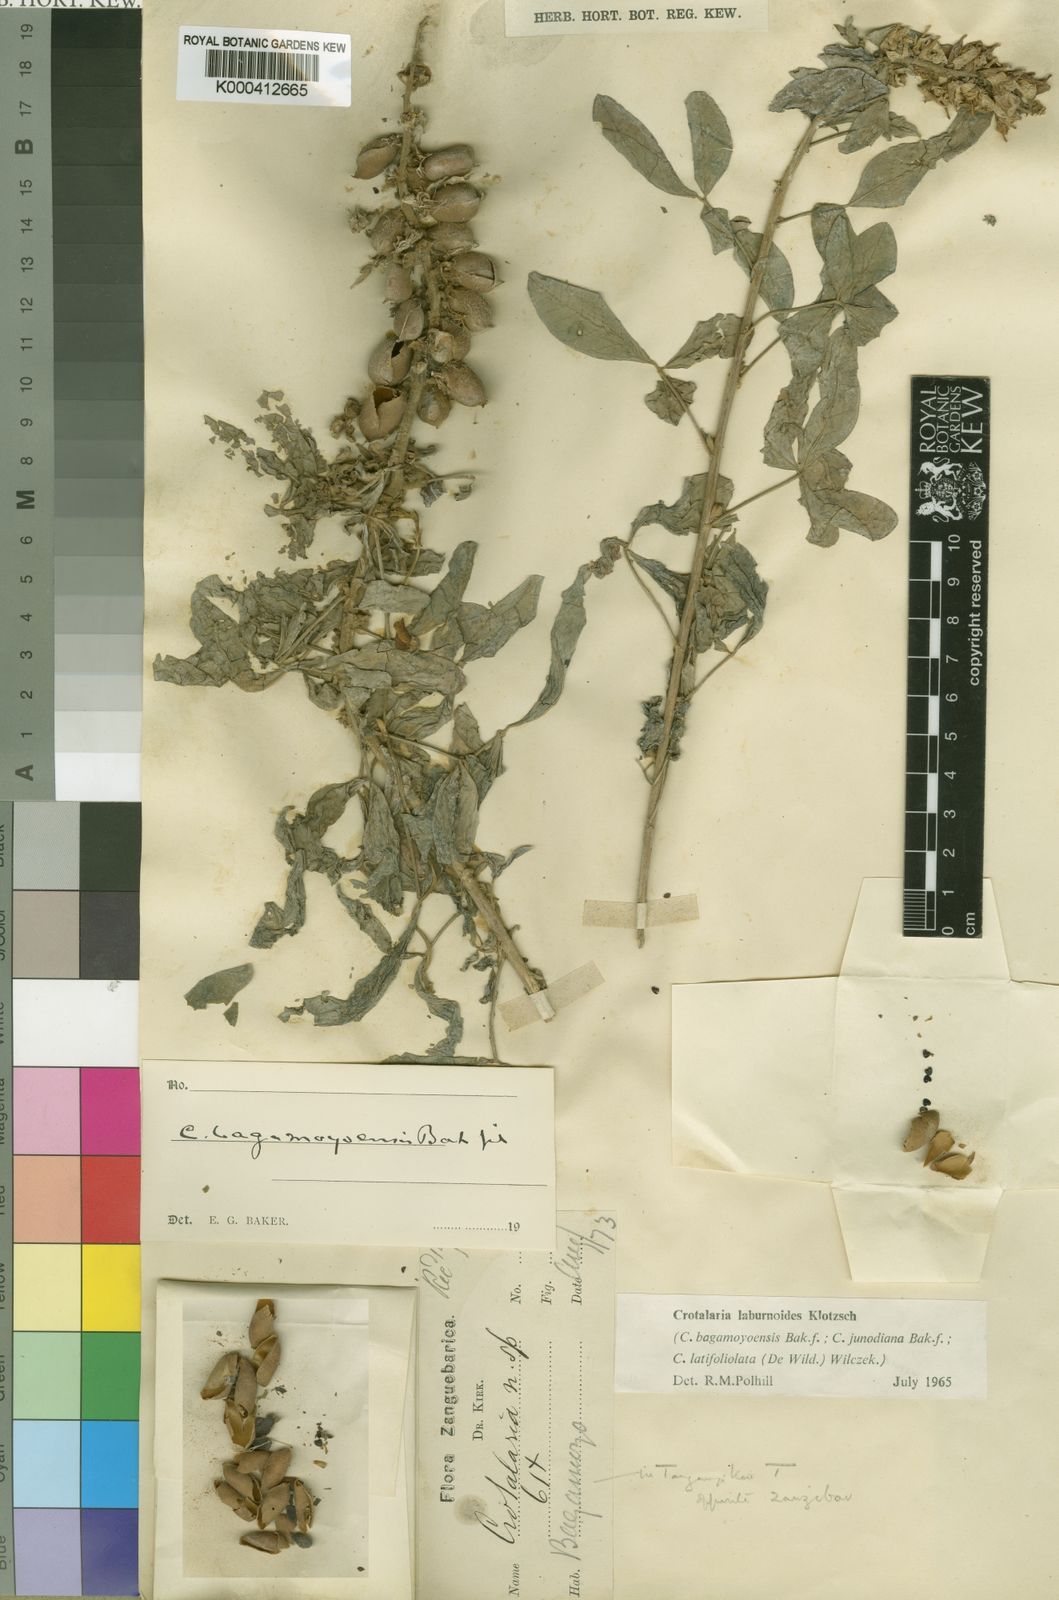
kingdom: Plantae
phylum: Tracheophyta
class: Magnoliopsida
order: Fabales
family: Fabaceae
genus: Crotalaria
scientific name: Crotalaria laburnoides
